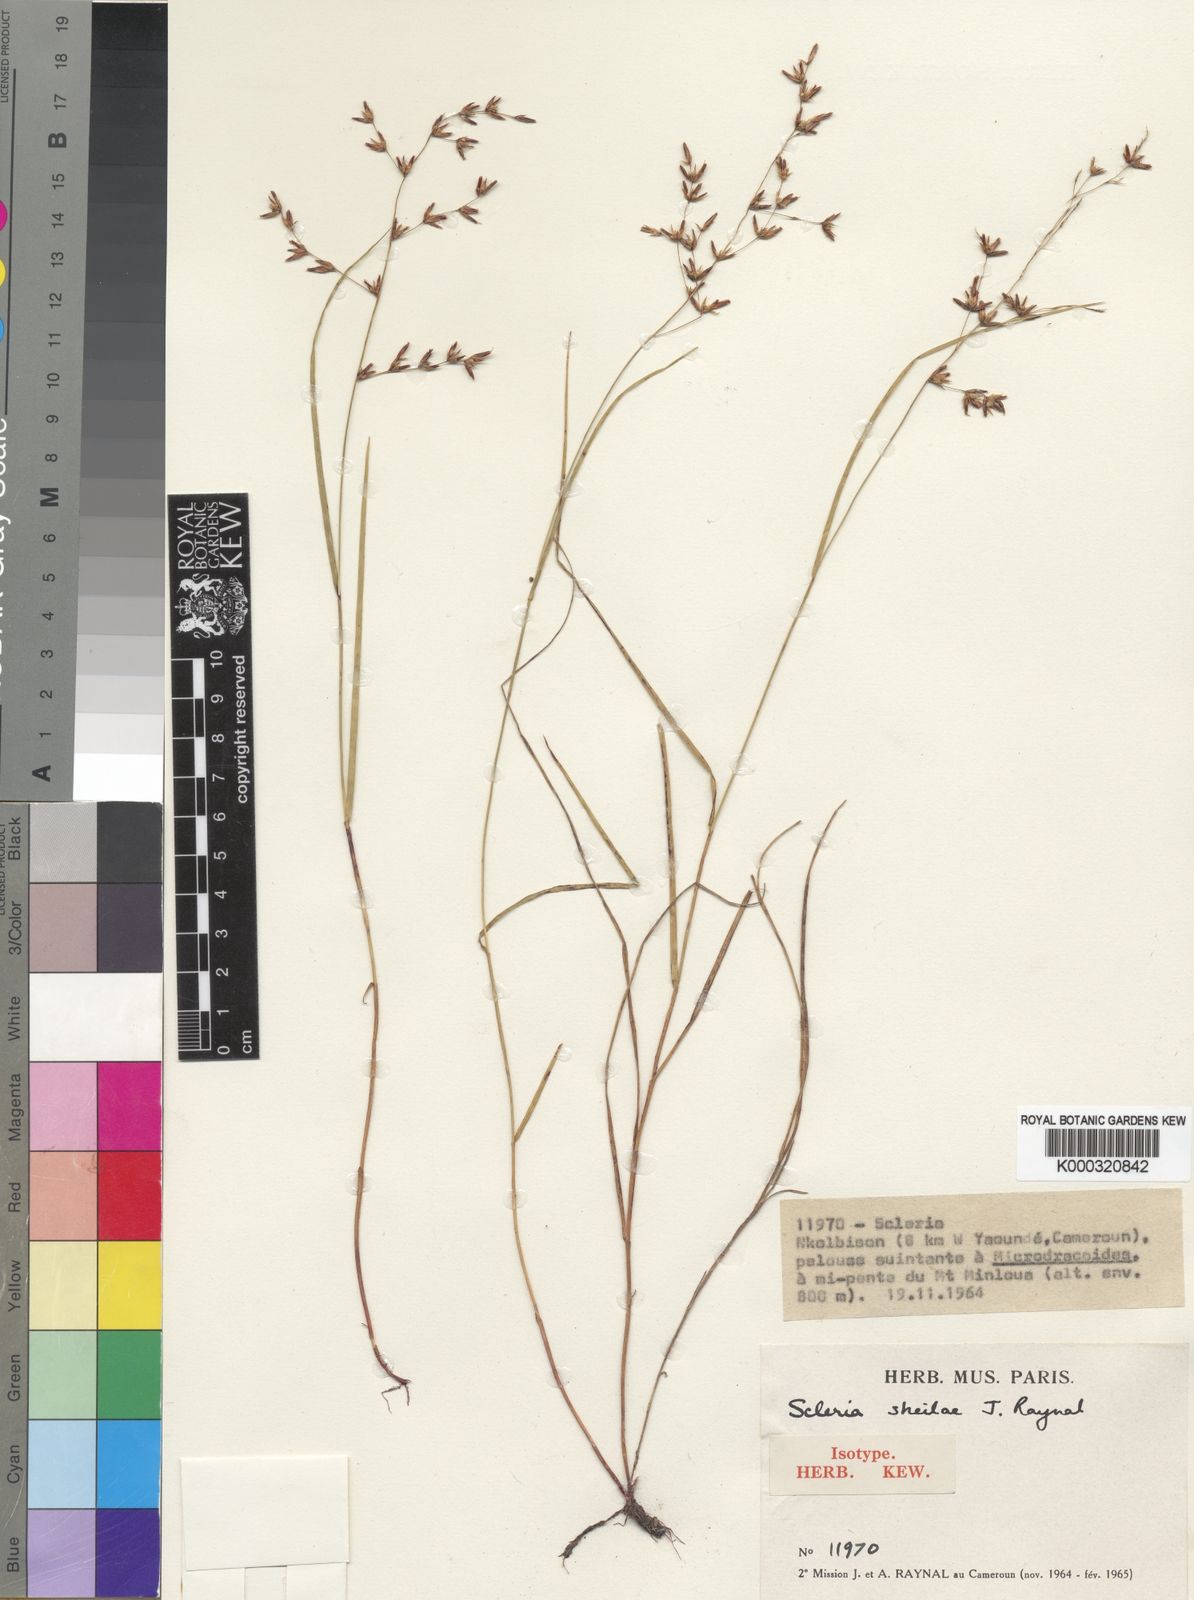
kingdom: Plantae
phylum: Tracheophyta
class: Liliopsida
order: Poales
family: Cyperaceae
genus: Scleria
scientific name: Scleria sheilae
